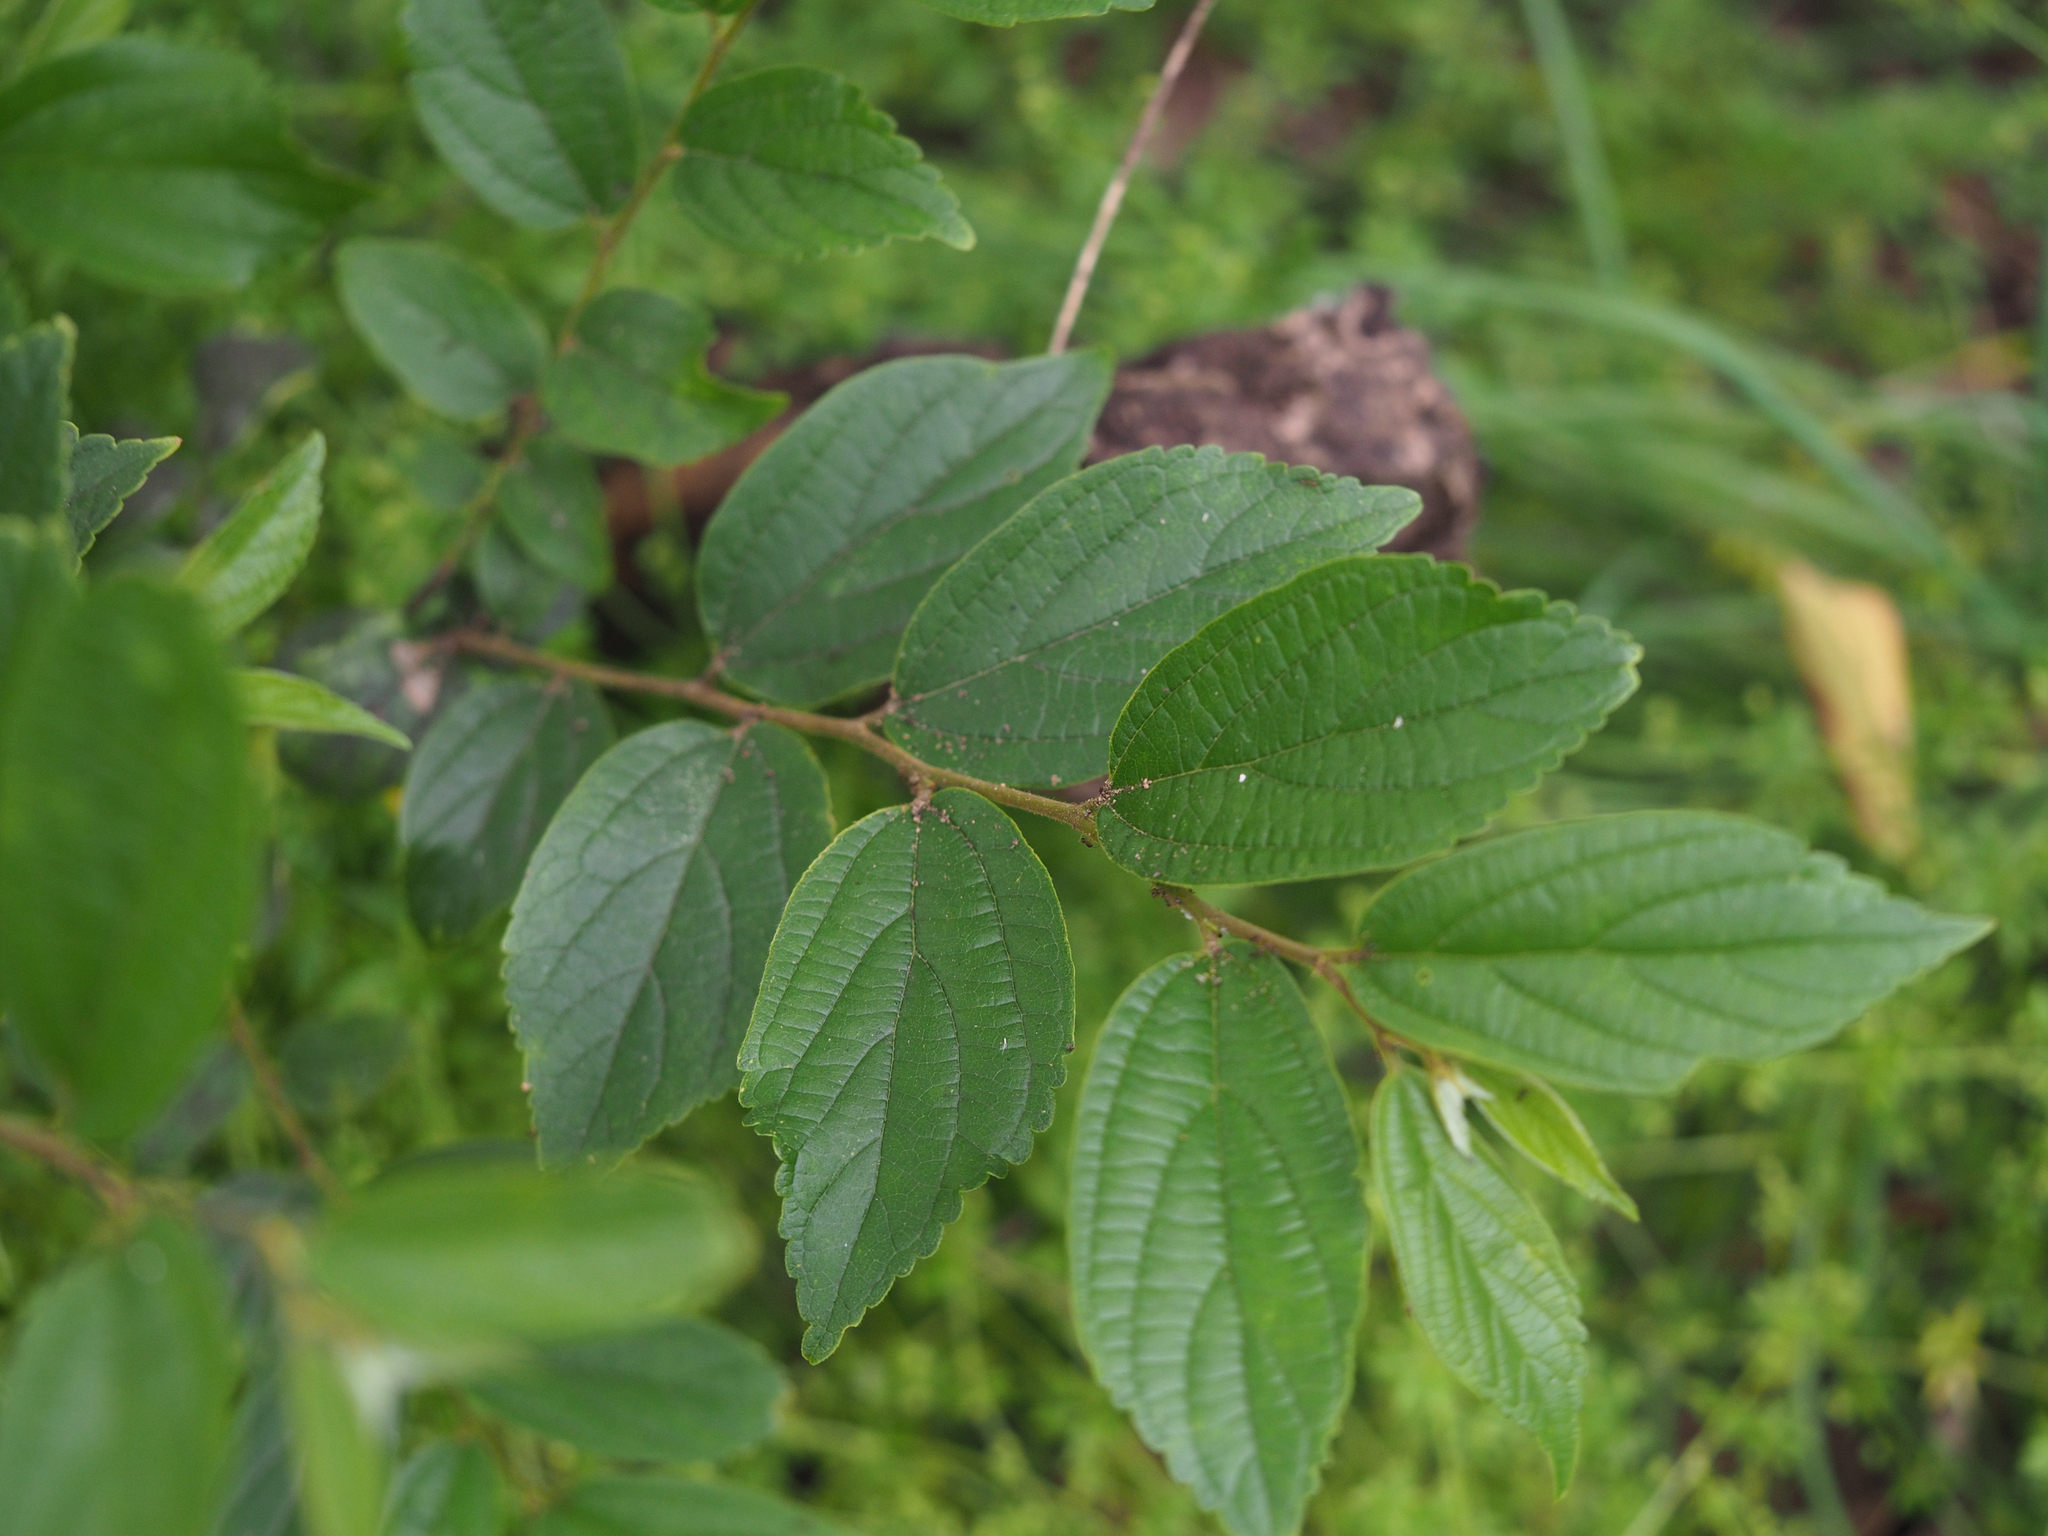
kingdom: Plantae
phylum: Tracheophyta
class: Magnoliopsida
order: Rosales
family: Cannabaceae
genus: Celtis
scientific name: Celtis sinensis
